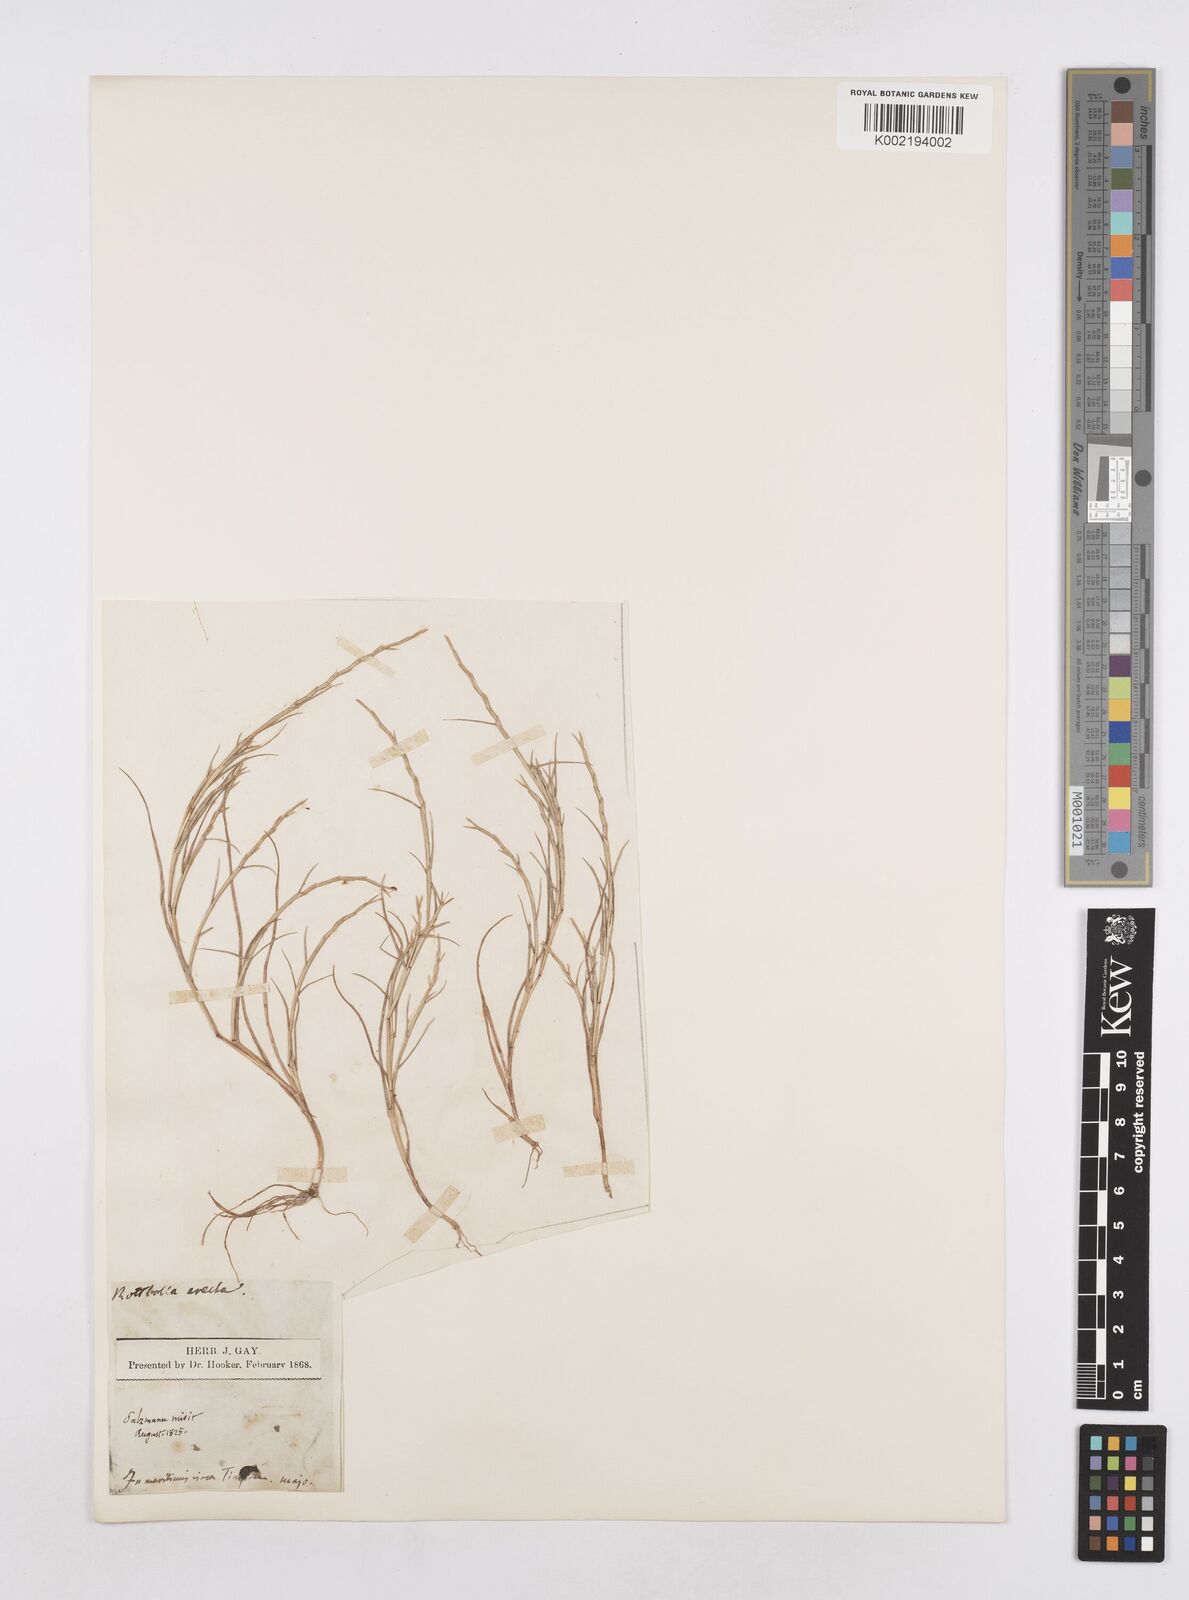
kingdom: Plantae
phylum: Tracheophyta
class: Liliopsida
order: Poales
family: Poaceae
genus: Parapholis
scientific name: Parapholis filiformis
